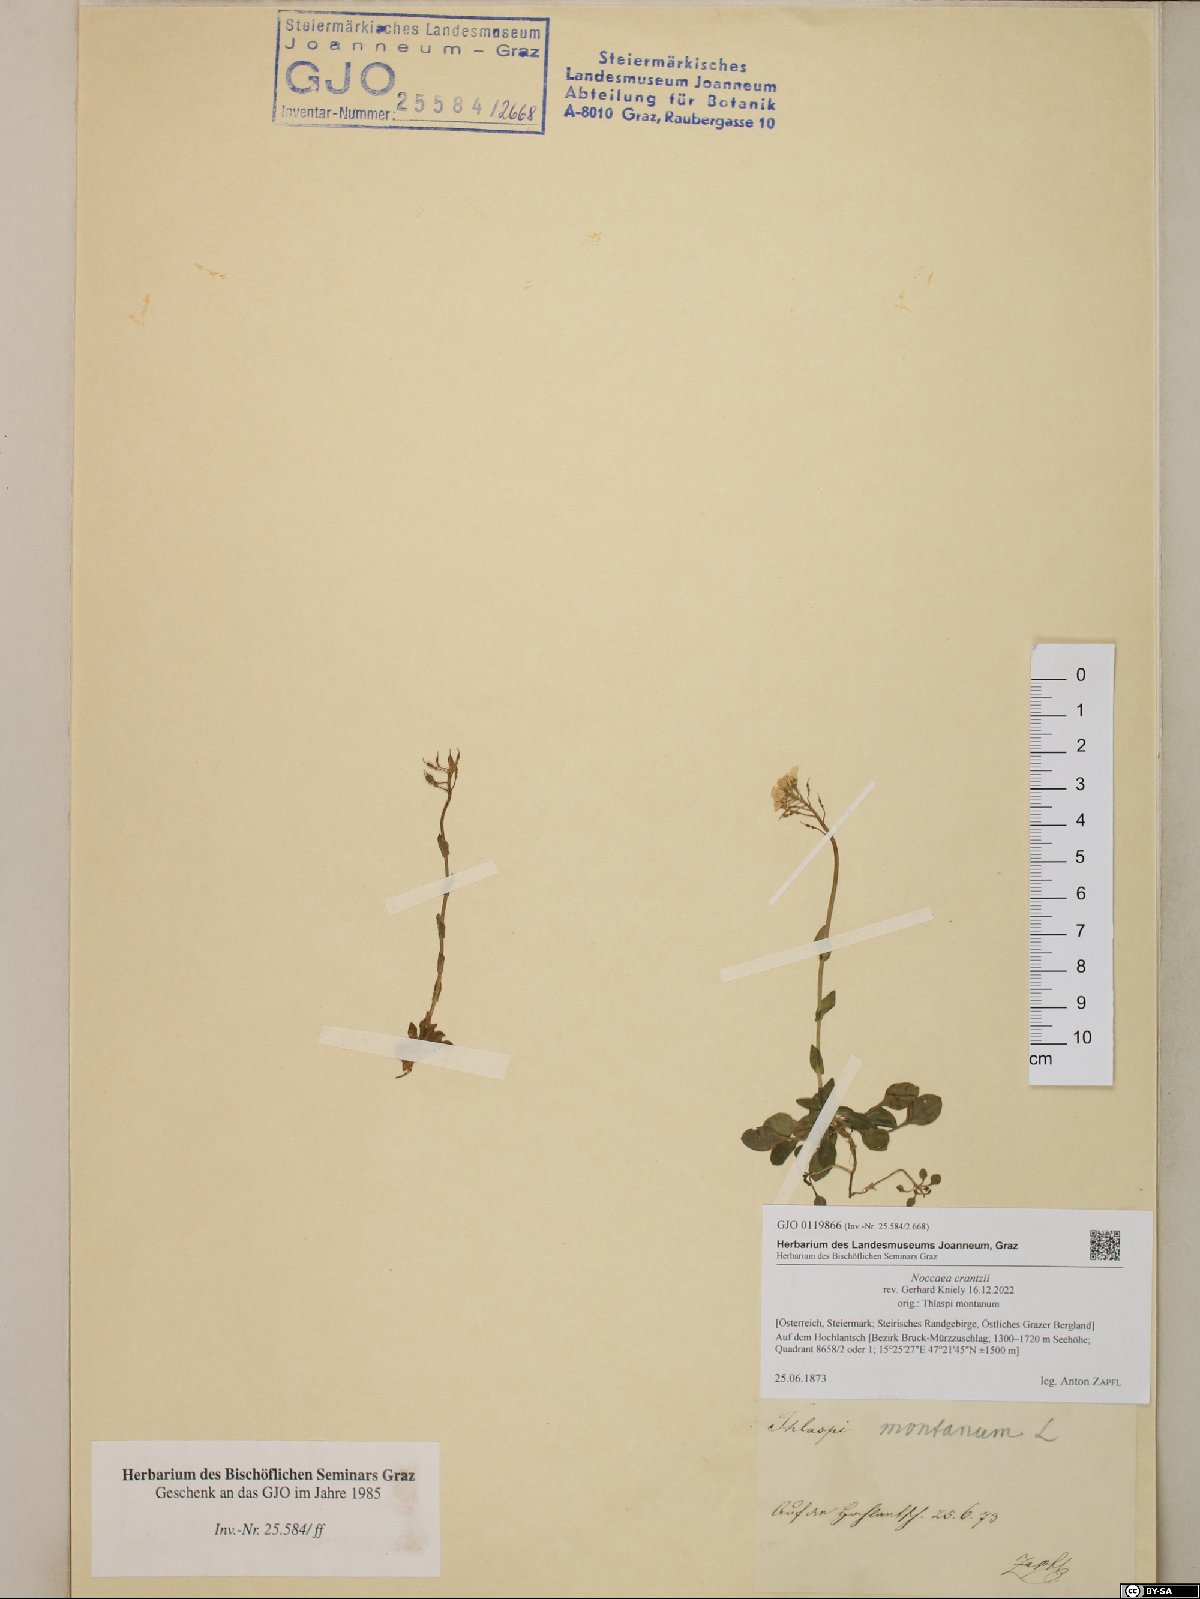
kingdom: Plantae
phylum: Tracheophyta
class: Magnoliopsida
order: Brassicales
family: Brassicaceae
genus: Noccaea
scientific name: Noccaea alpestris
